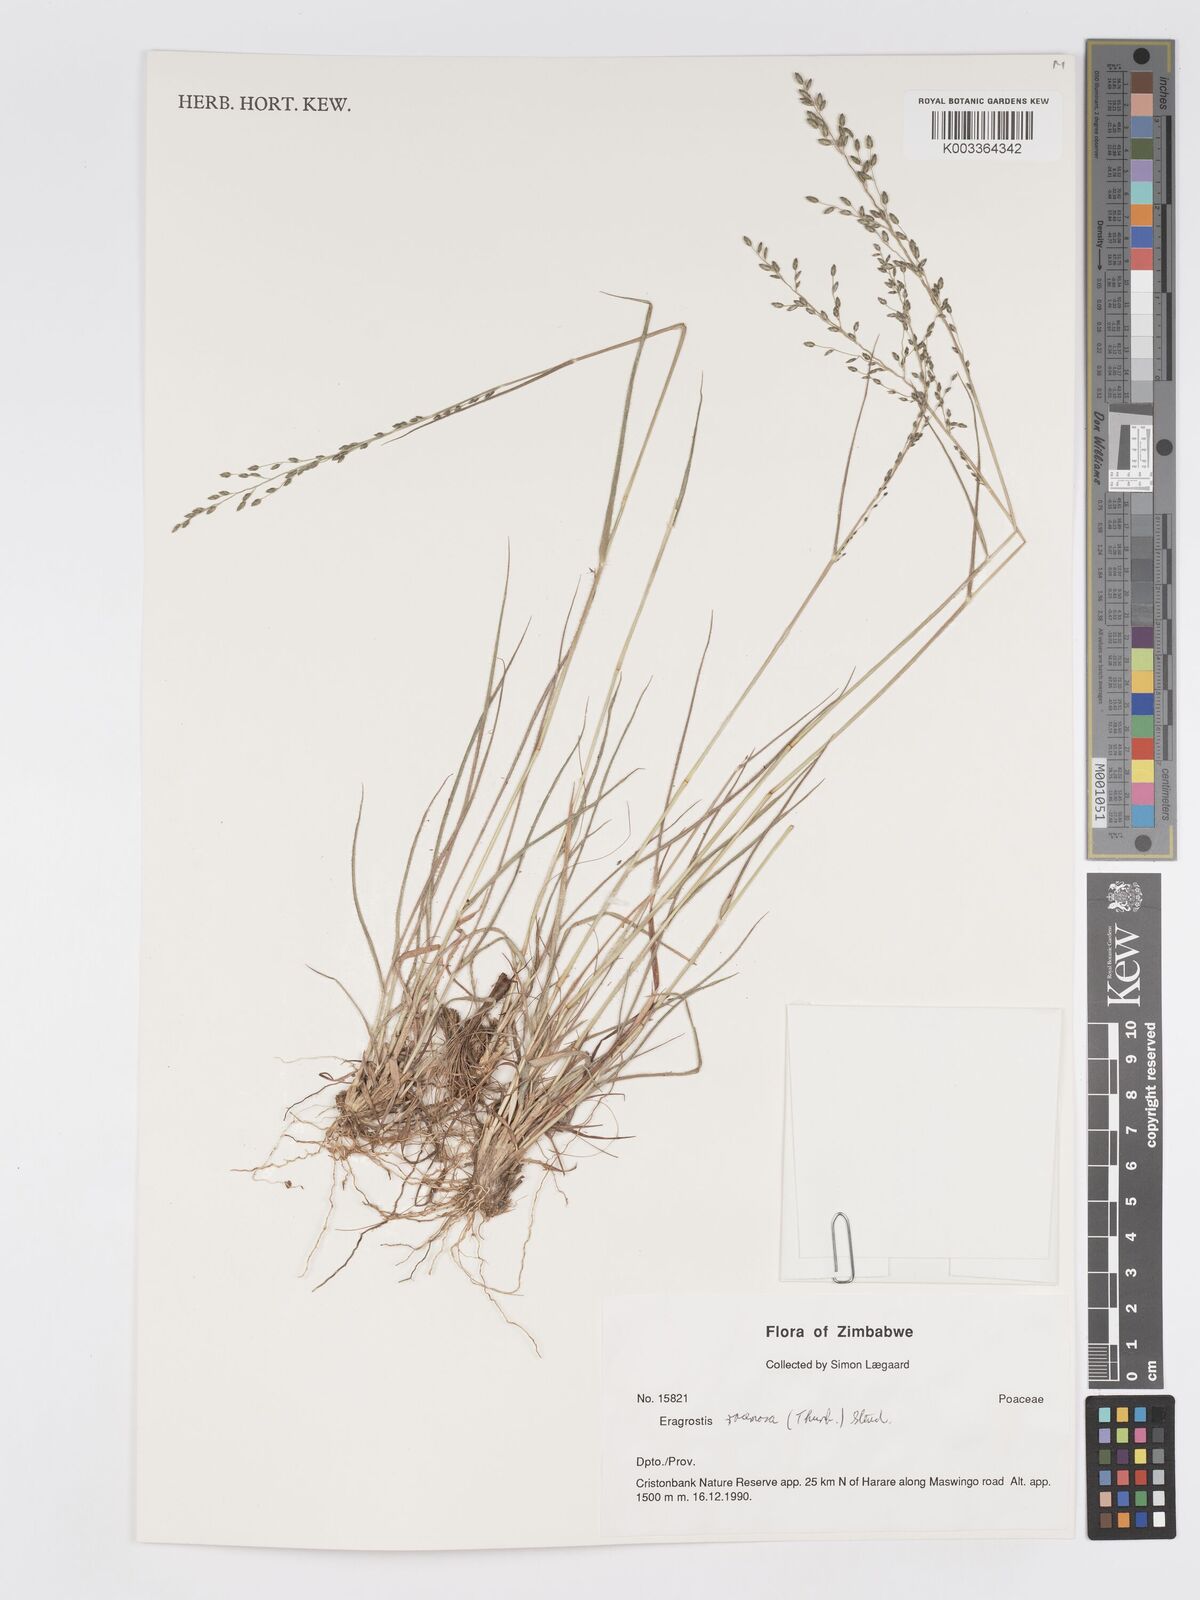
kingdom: Plantae
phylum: Tracheophyta
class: Liliopsida
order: Poales
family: Poaceae
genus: Eragrostis
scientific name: Eragrostis racemosa
